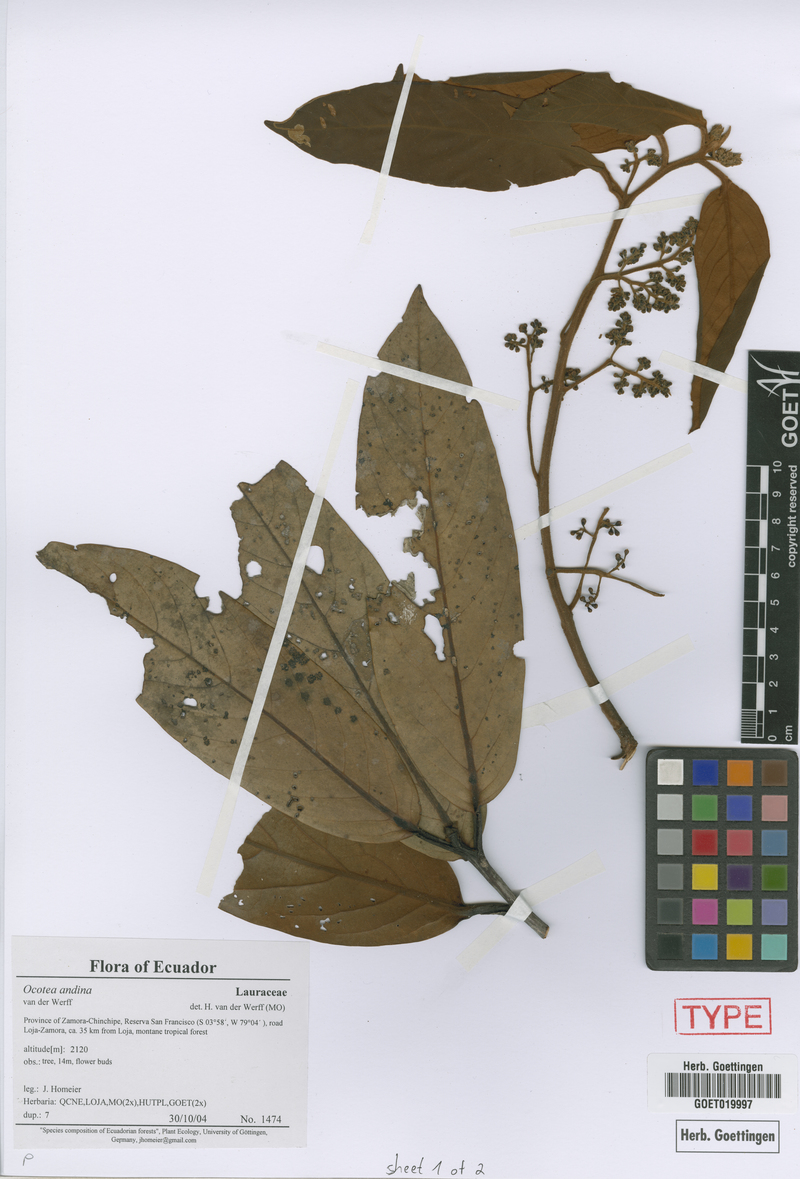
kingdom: Plantae
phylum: Tracheophyta
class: Magnoliopsida
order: Laurales
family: Lauraceae
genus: Ocotea
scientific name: Ocotea andina
